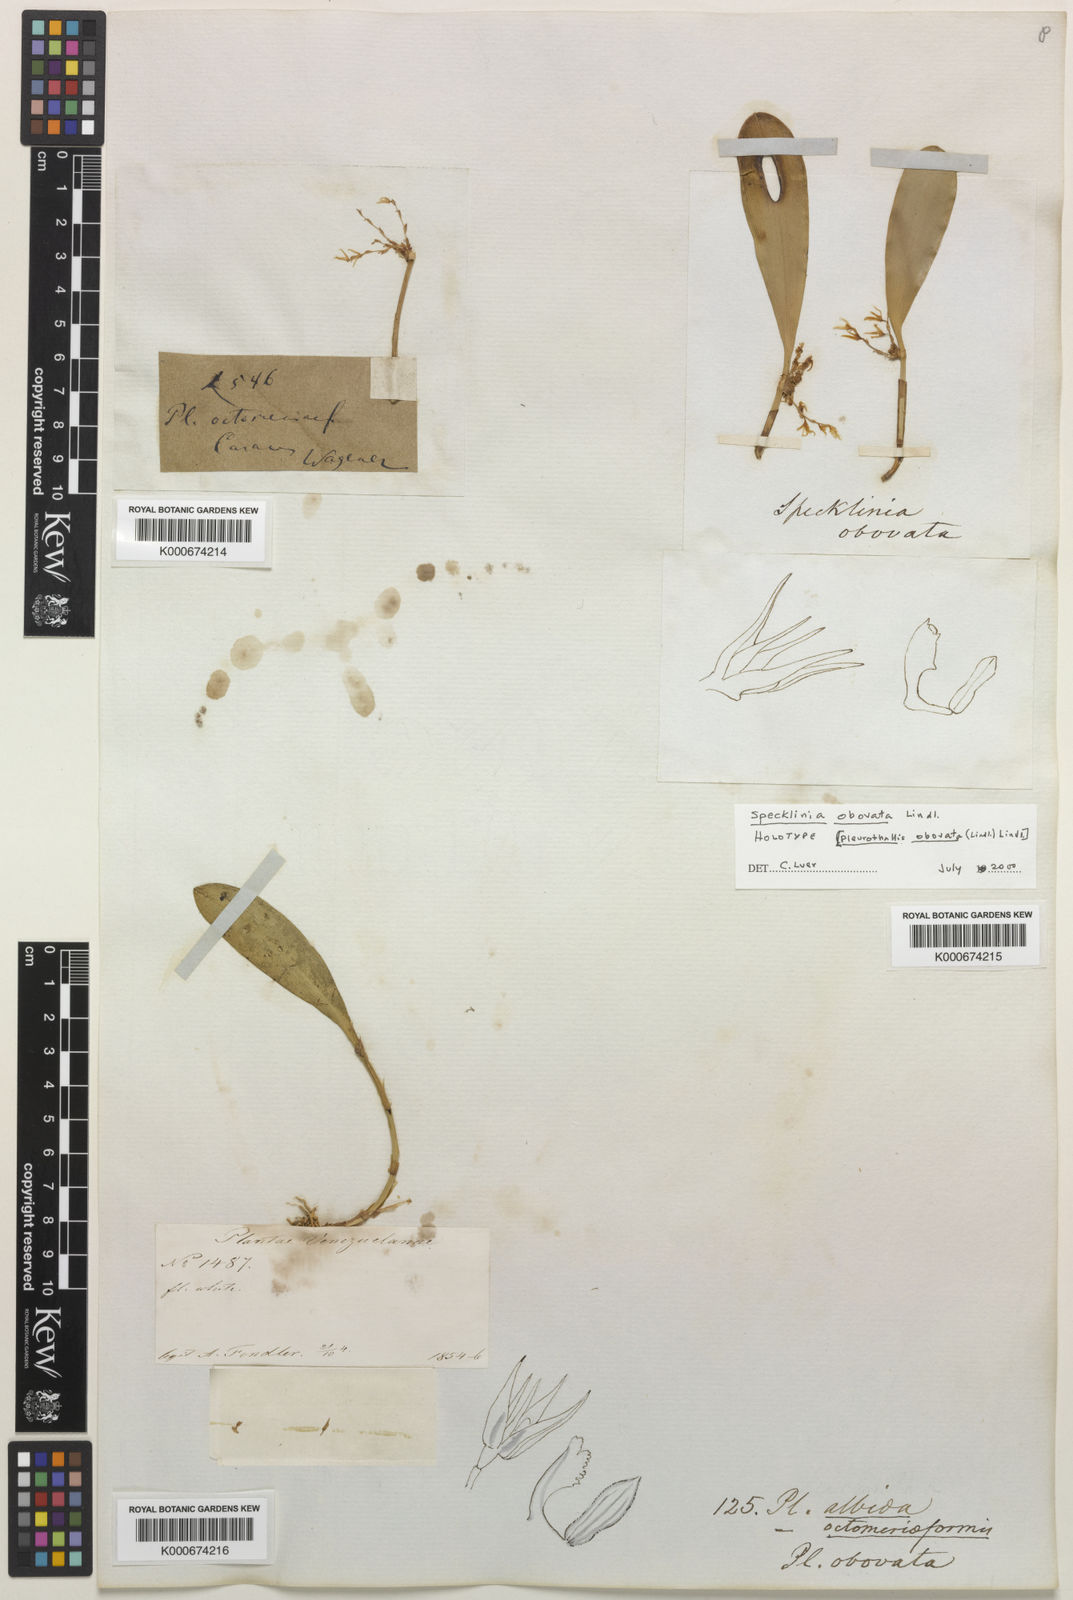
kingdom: Plantae
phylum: Tracheophyta
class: Liliopsida
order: Asparagales
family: Orchidaceae
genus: Anathallis
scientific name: Anathallis obovata
